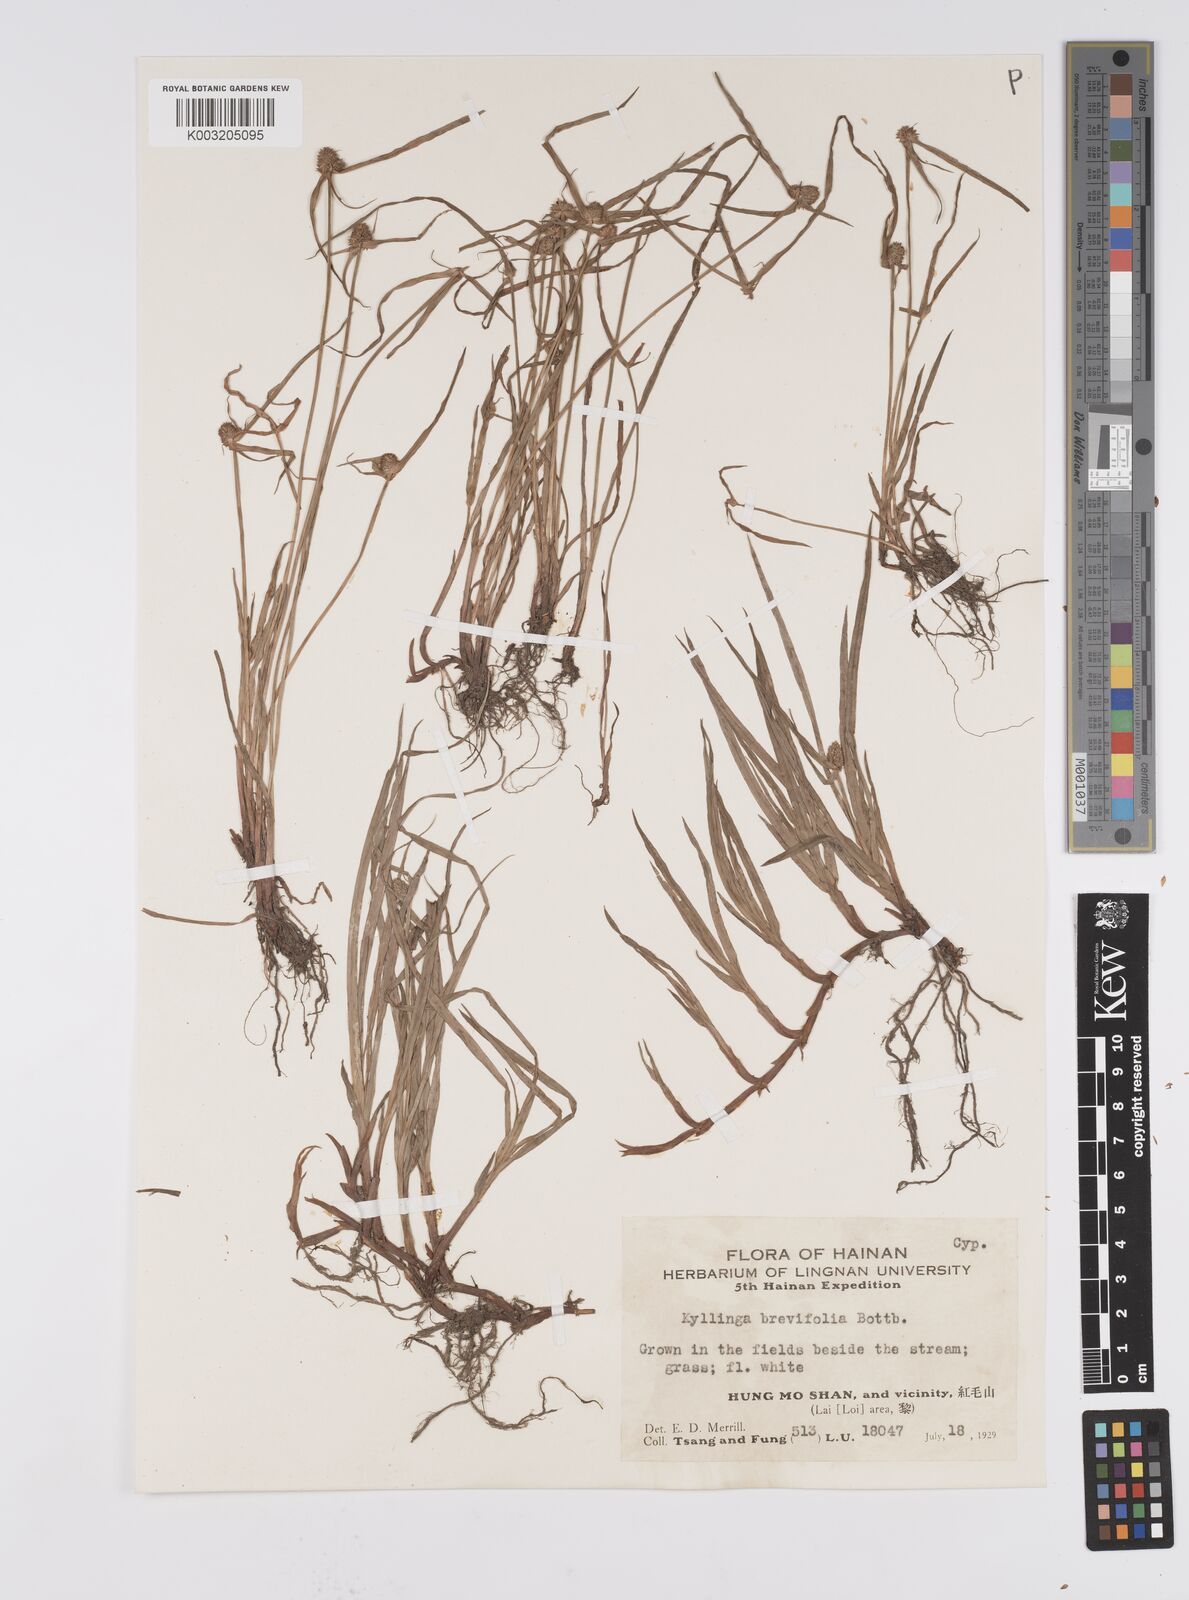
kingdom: Plantae
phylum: Tracheophyta
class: Liliopsida
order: Poales
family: Cyperaceae
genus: Cyperus
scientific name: Cyperus brevifolius
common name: Globe kyllinga
